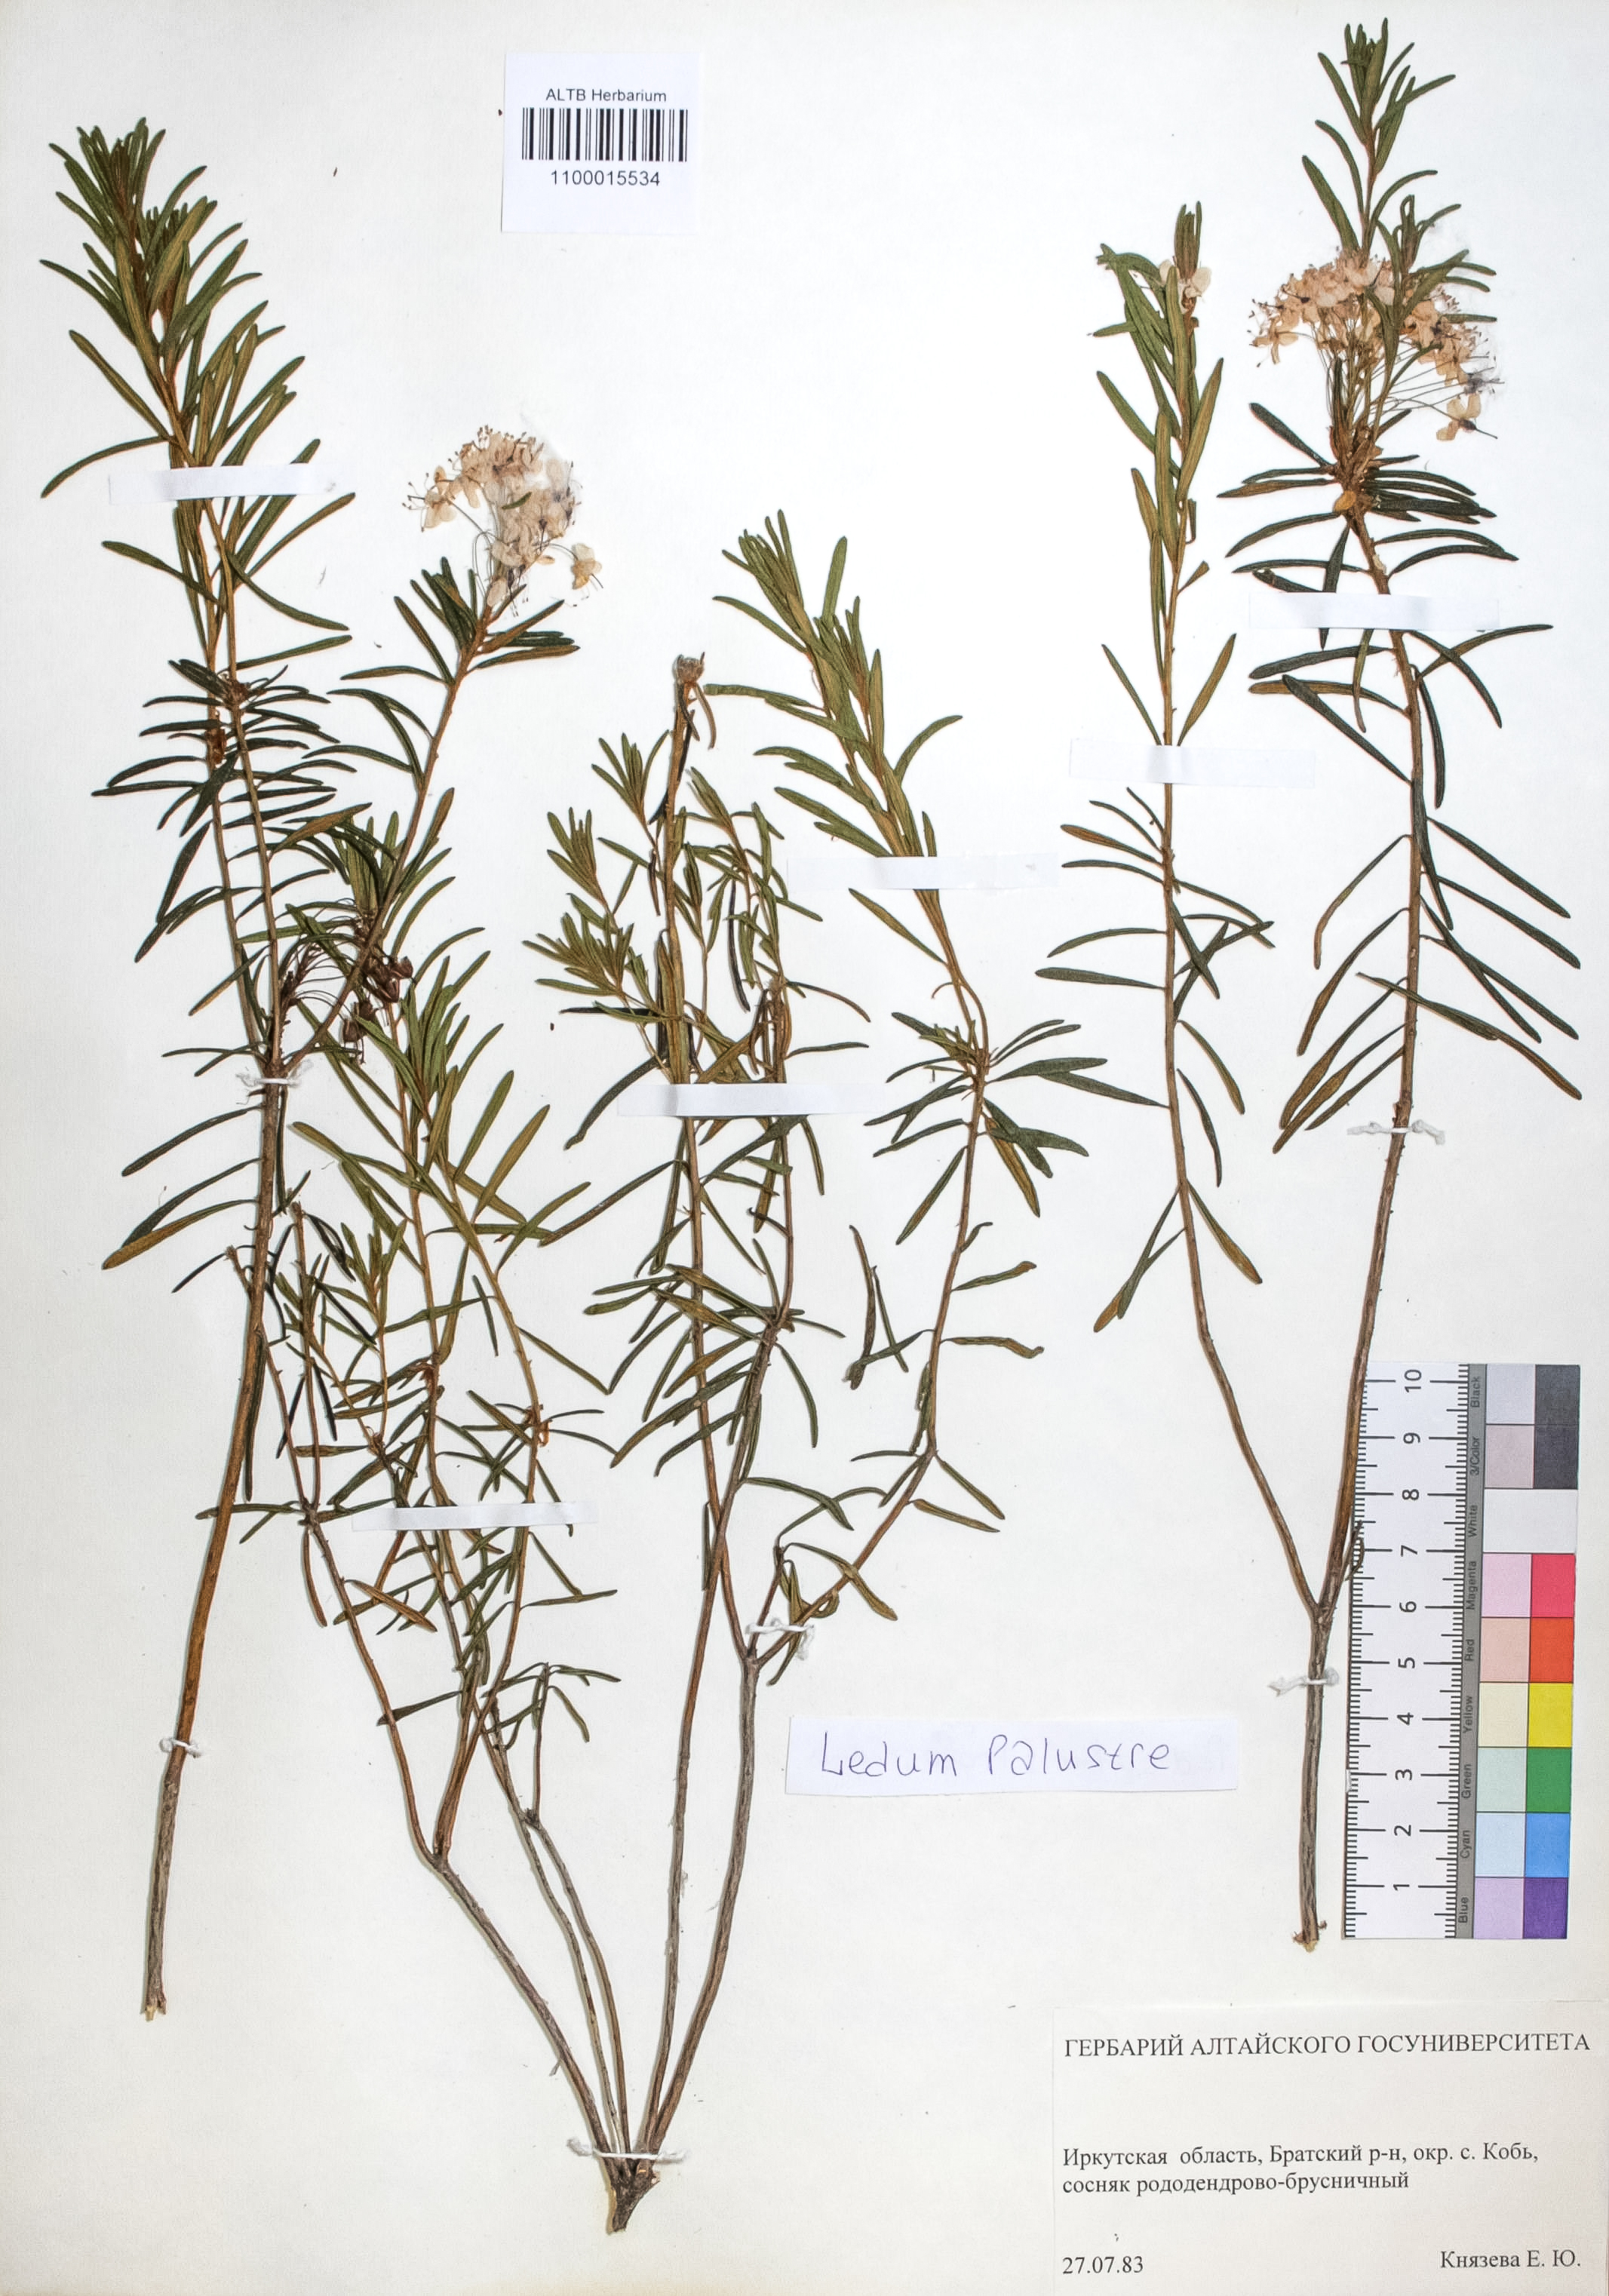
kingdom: Plantae
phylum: Tracheophyta
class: Magnoliopsida
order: Ericales
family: Ericaceae
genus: Rhododendron
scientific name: Rhododendron tomentosum
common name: Marsh labrador tea
